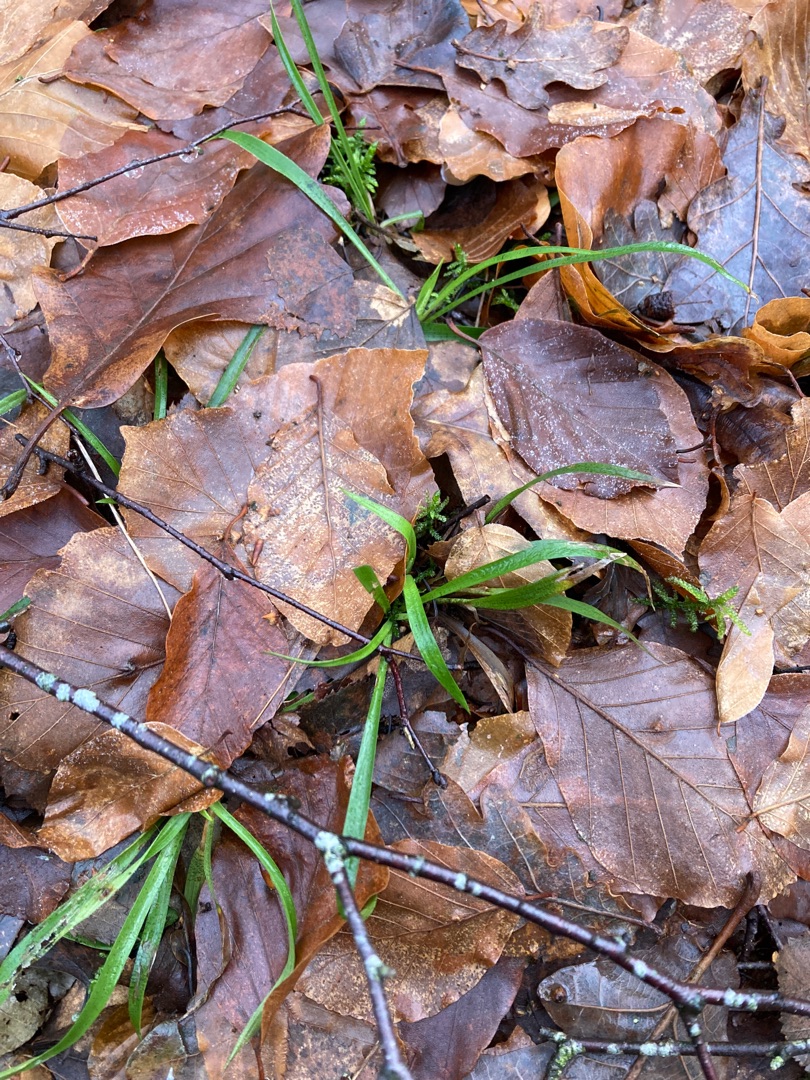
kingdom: Plantae
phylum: Tracheophyta
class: Liliopsida
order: Poales
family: Juncaceae
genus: Luzula
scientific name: Luzula pilosa
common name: Håret frytle
